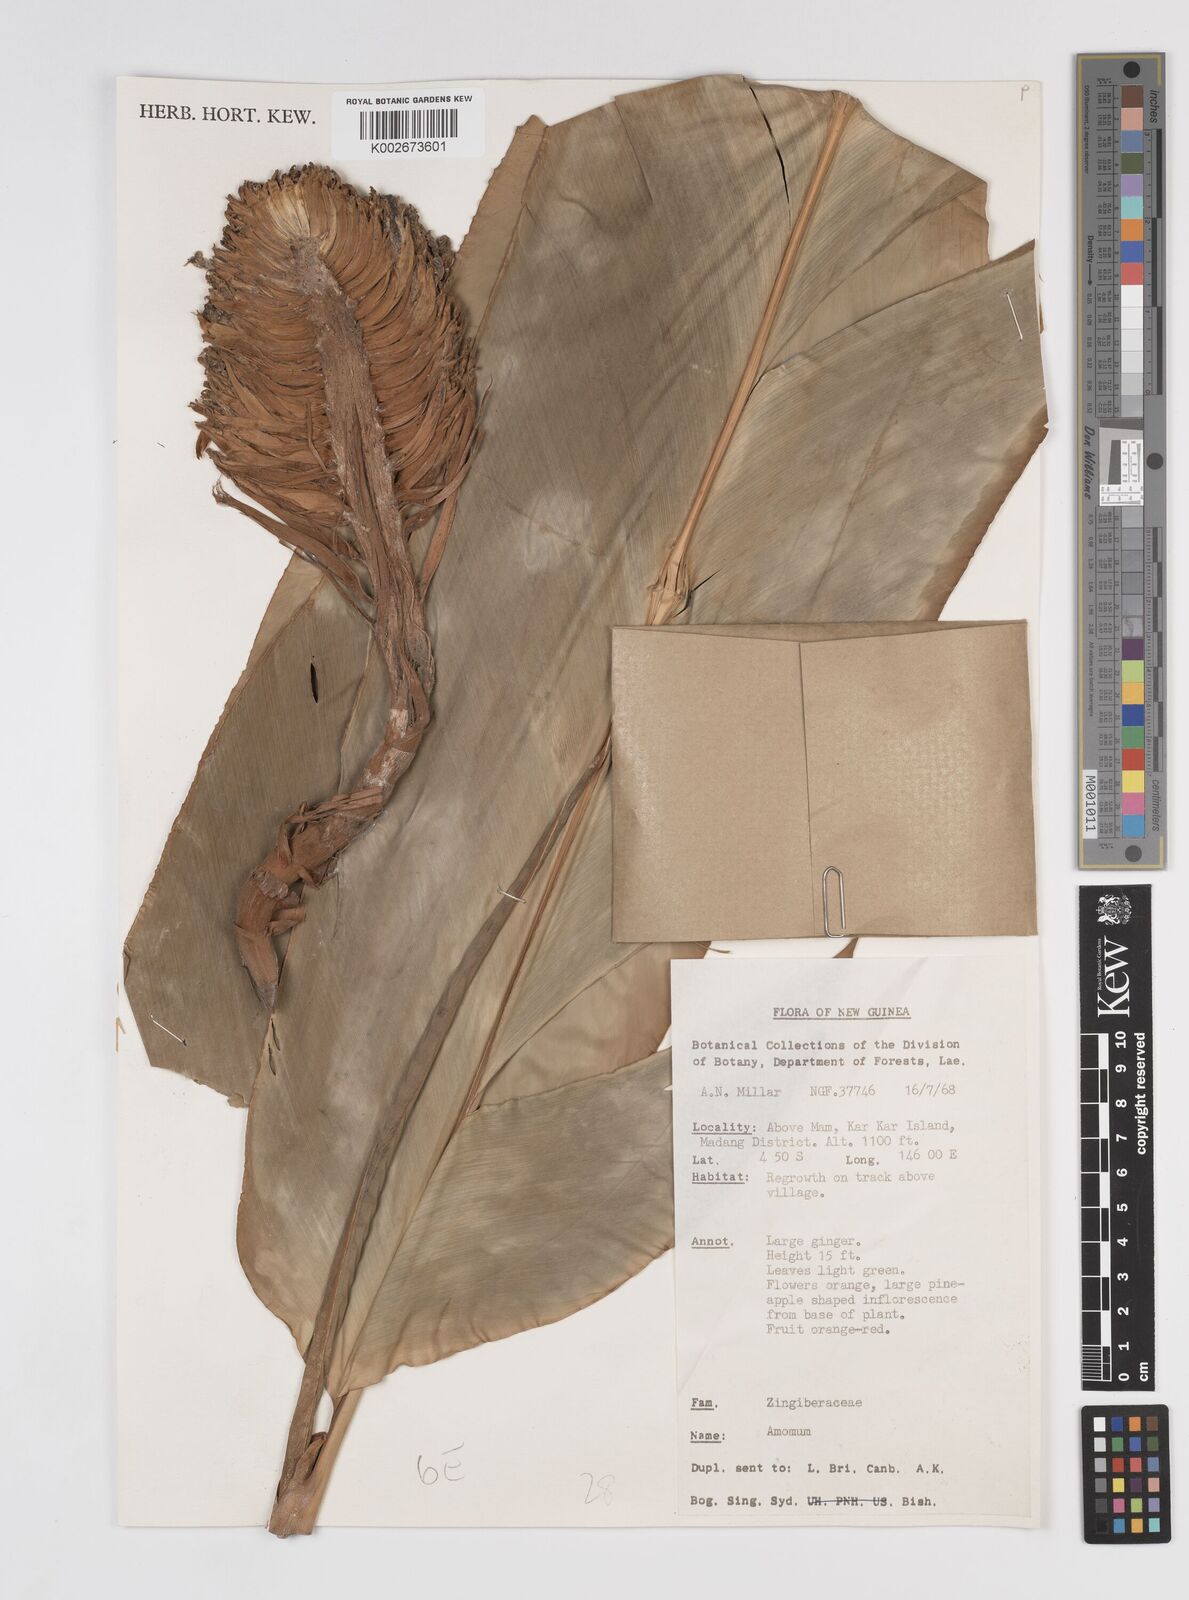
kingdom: Plantae
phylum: Tracheophyta
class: Liliopsida
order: Zingiberales
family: Zingiberaceae
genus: Amomum
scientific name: Amomum
